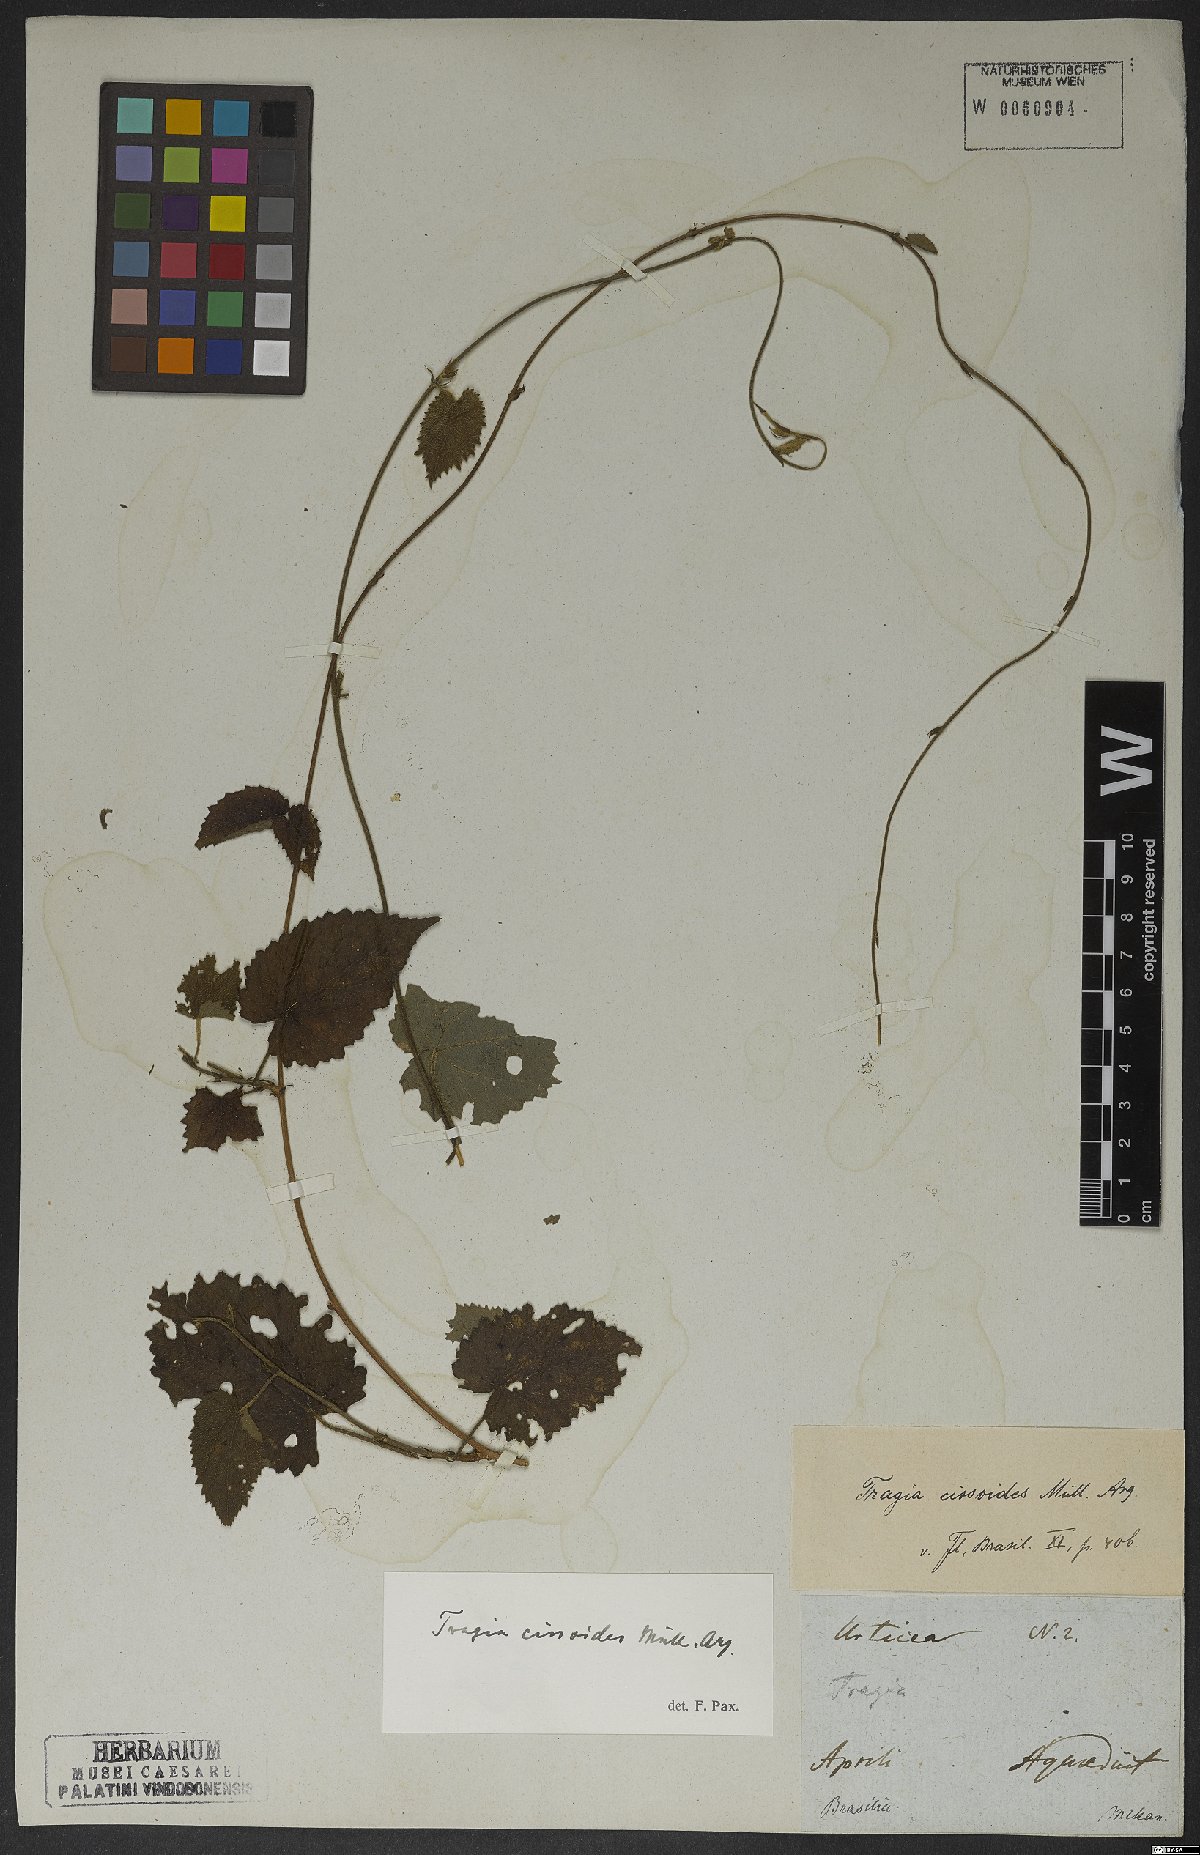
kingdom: Plantae
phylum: Tracheophyta
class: Magnoliopsida
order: Malpighiales
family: Euphorbiaceae
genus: Bia
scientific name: Bia alienata
